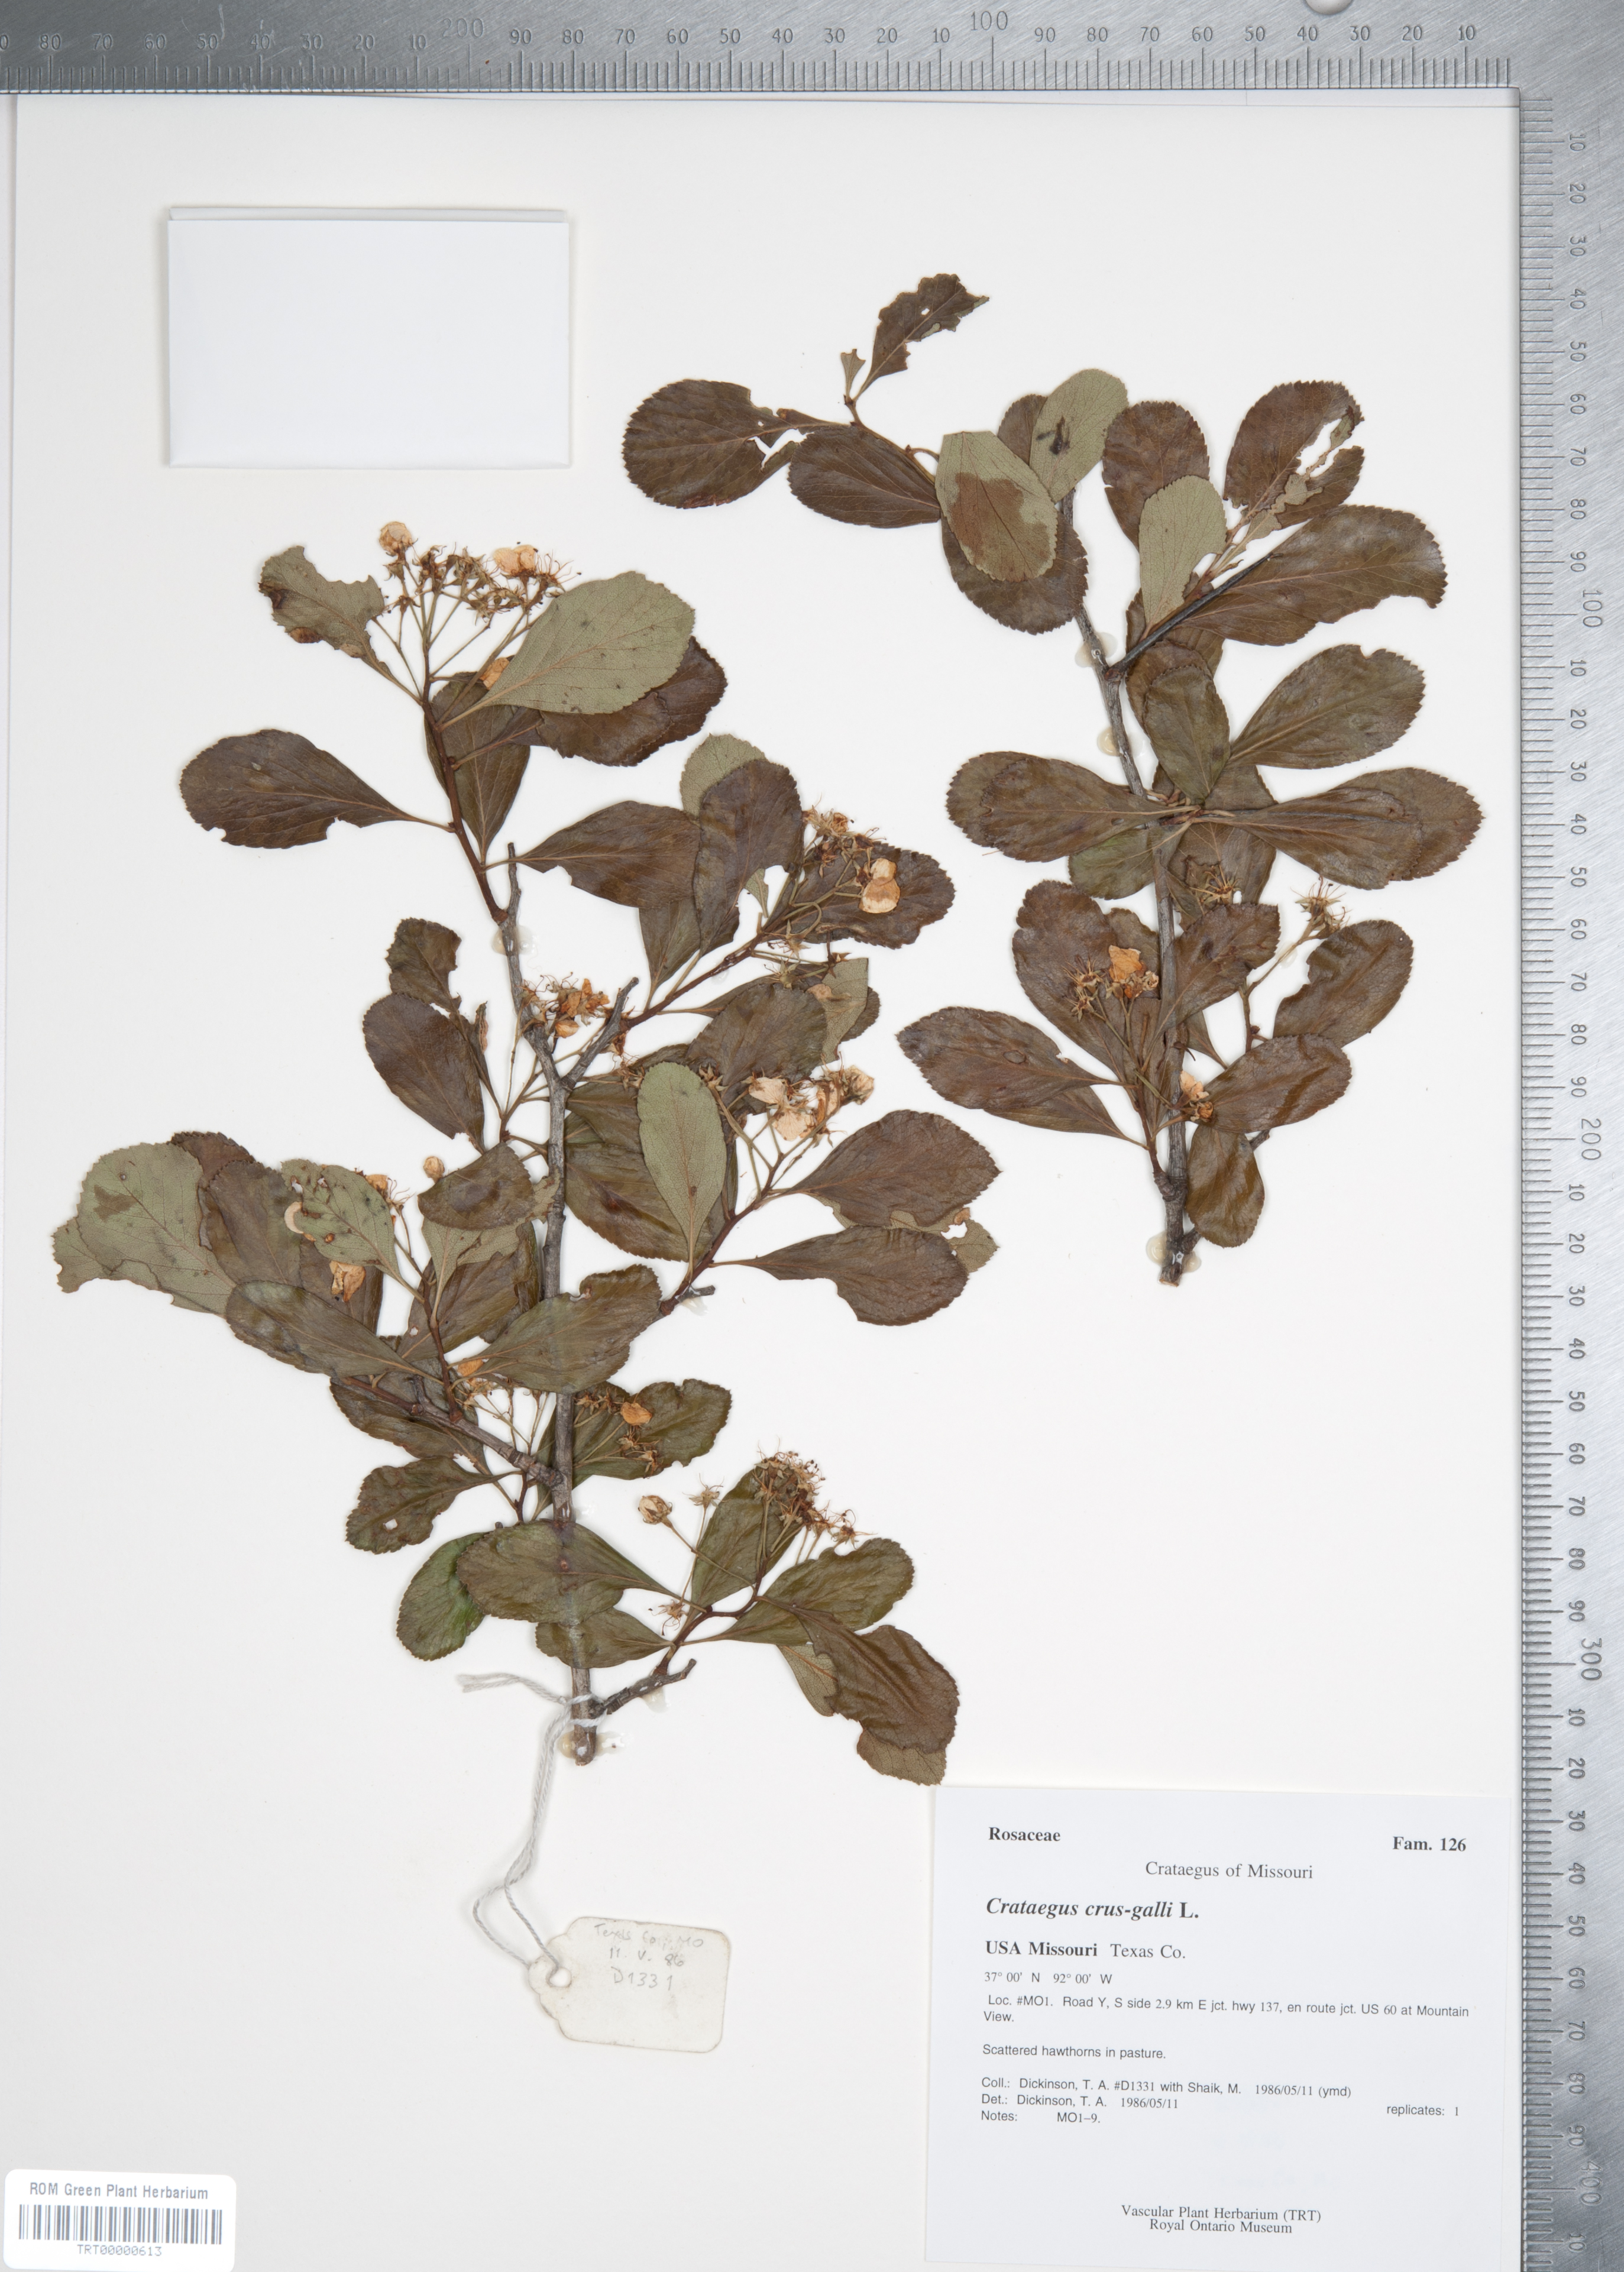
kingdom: Plantae
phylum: Tracheophyta
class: Magnoliopsida
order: Rosales
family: Rosaceae
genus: Crataegus
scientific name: Crataegus crus-galli
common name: Cockspurthorn
